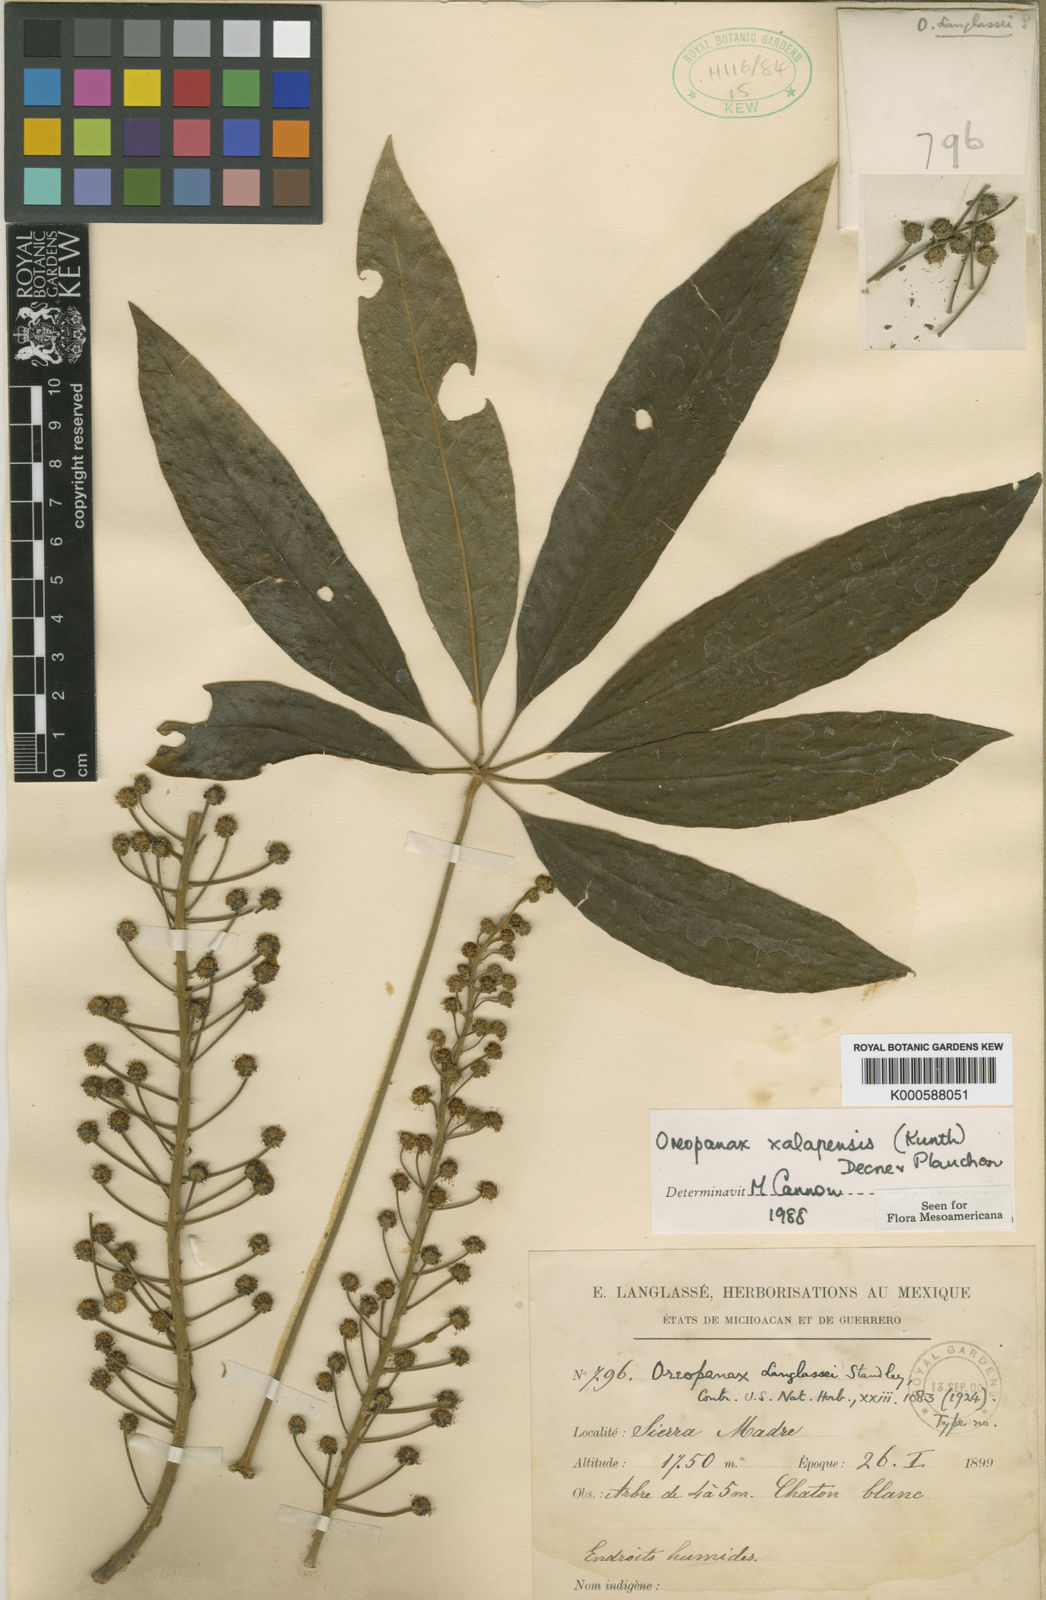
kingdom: Plantae
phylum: Tracheophyta
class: Magnoliopsida
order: Apiales
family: Araliaceae
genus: Oreopanax
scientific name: Oreopanax
